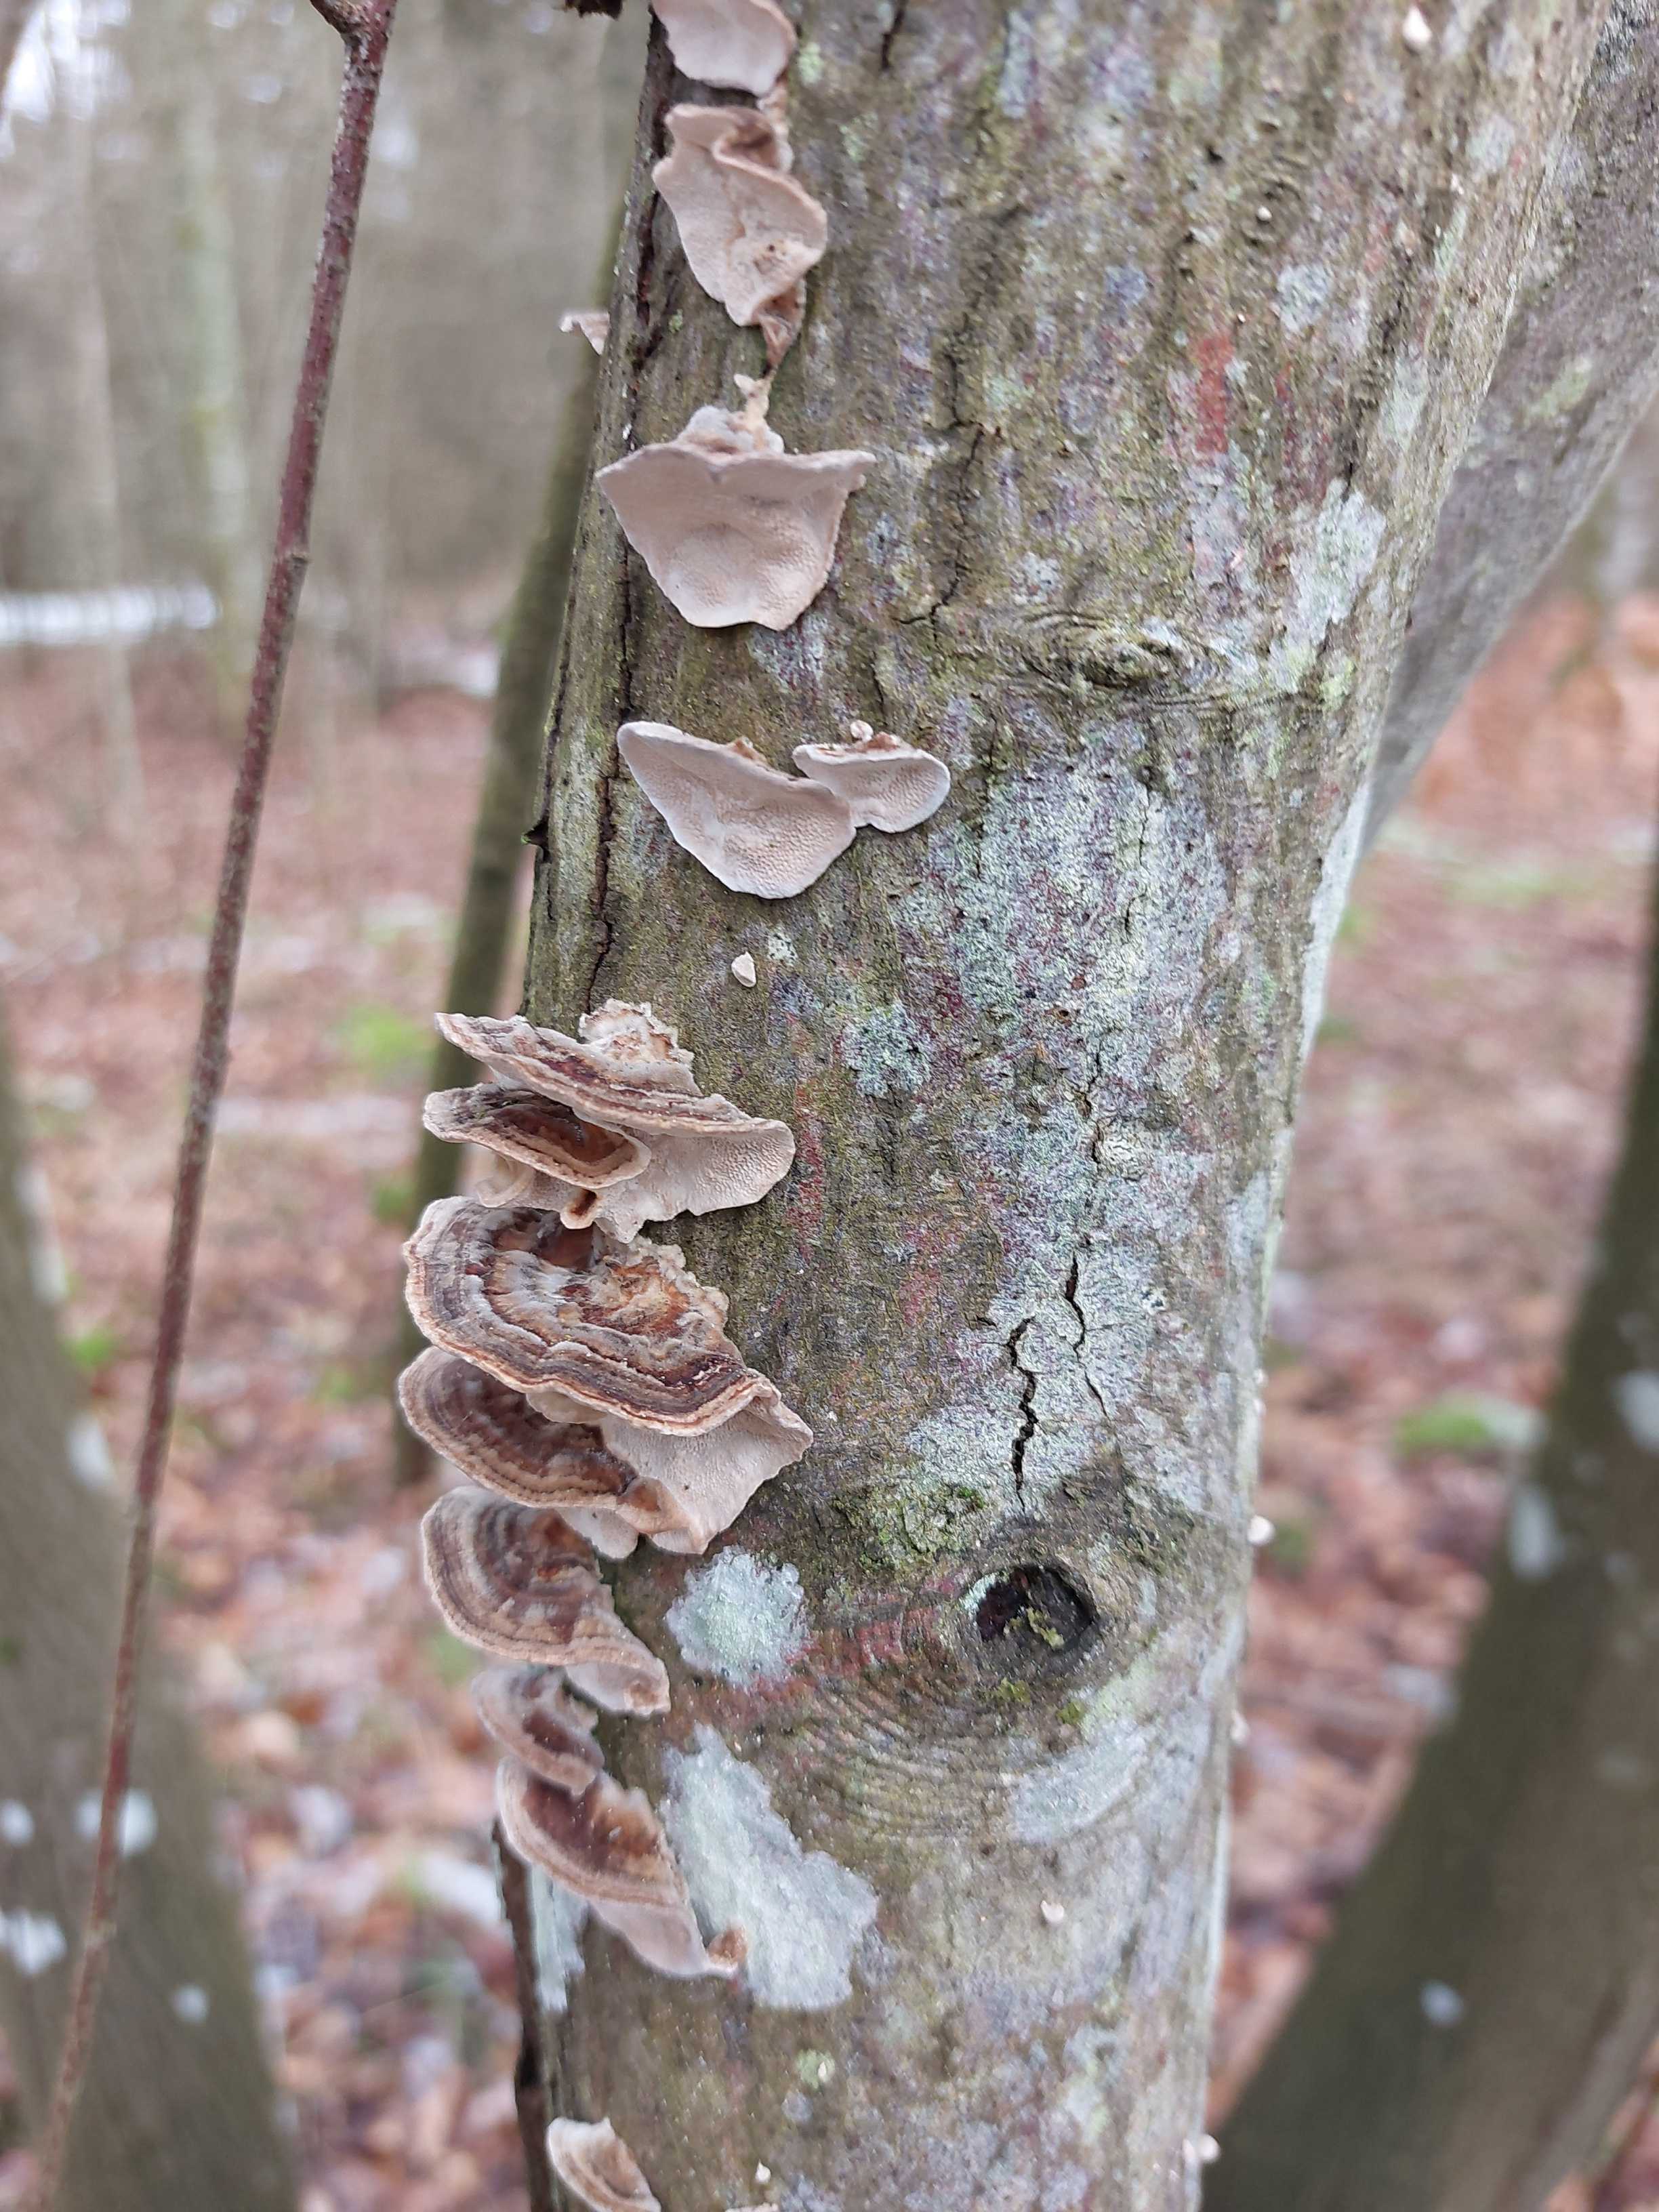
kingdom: Fungi
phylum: Basidiomycota
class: Agaricomycetes
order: Polyporales
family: Phanerochaetaceae
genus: Bjerkandera
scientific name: Bjerkandera adusta
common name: sveden sodporesvamp
